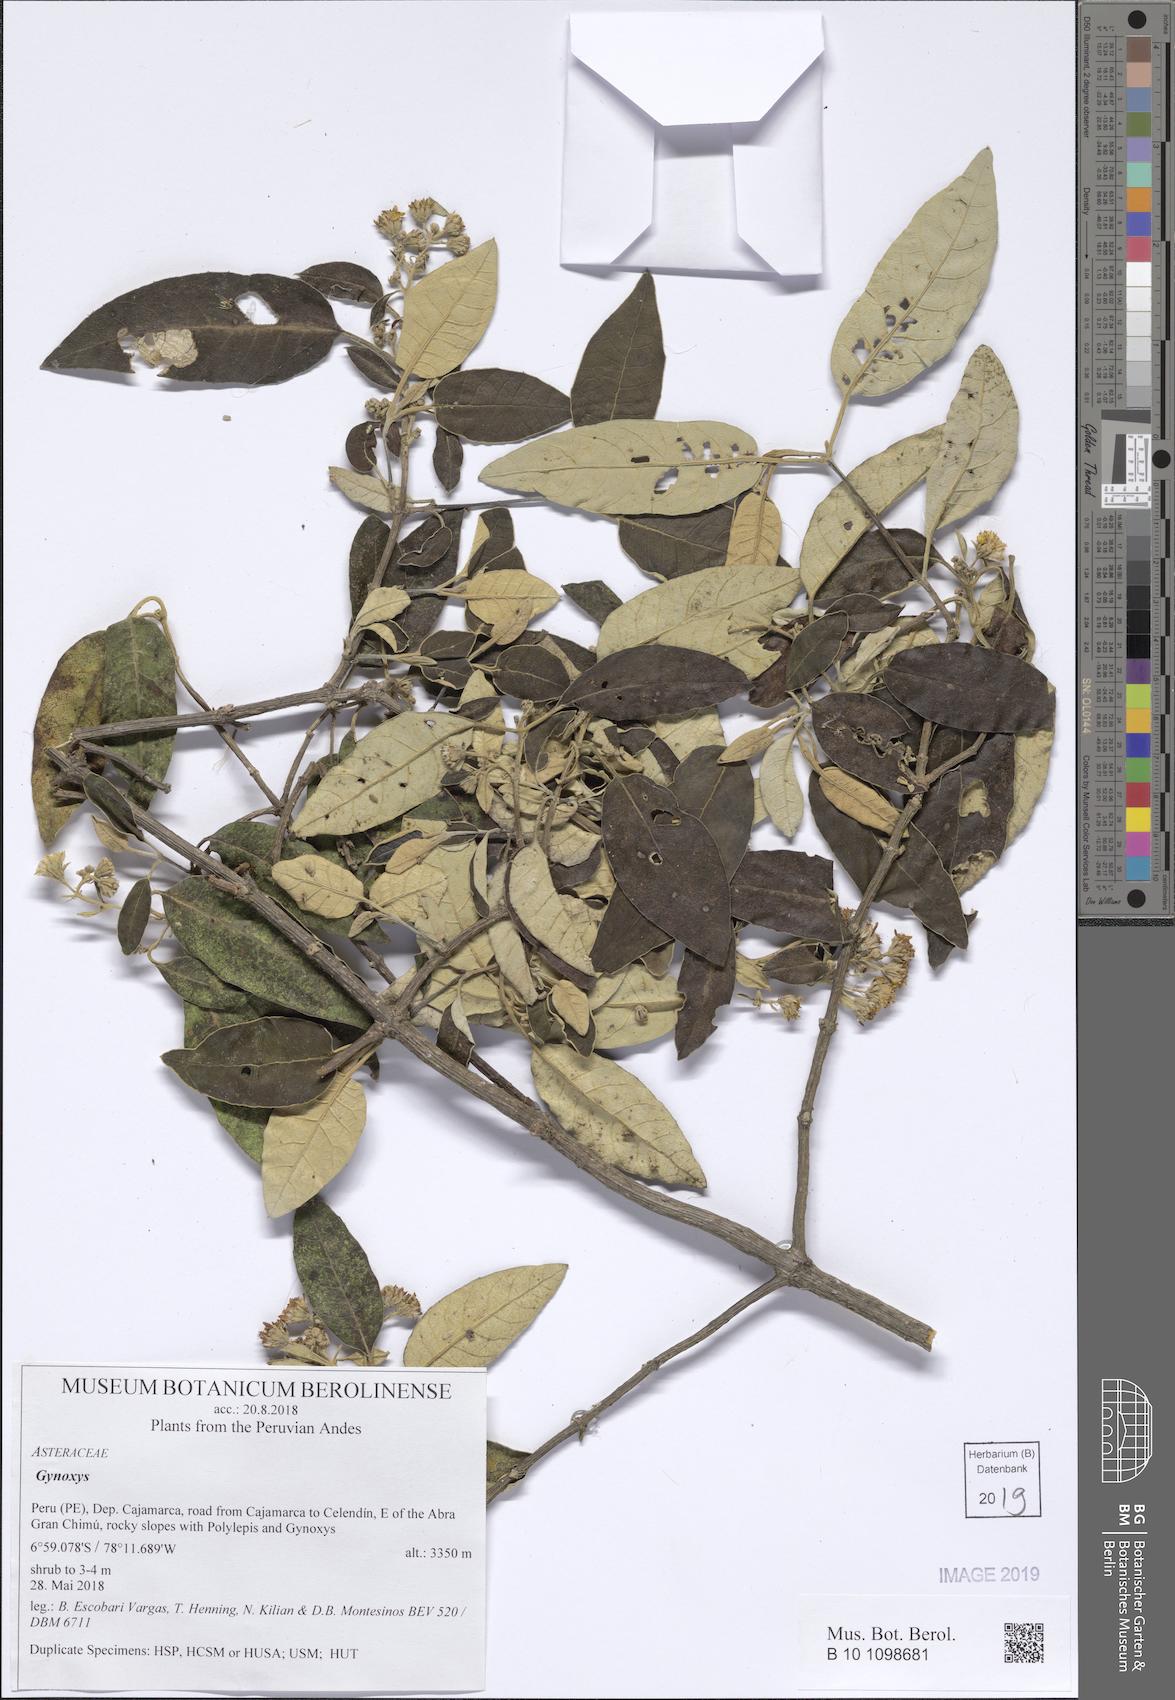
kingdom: Plantae
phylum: Tracheophyta
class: Magnoliopsida
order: Asterales
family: Asteraceae
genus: Gynoxys
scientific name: Gynoxys
